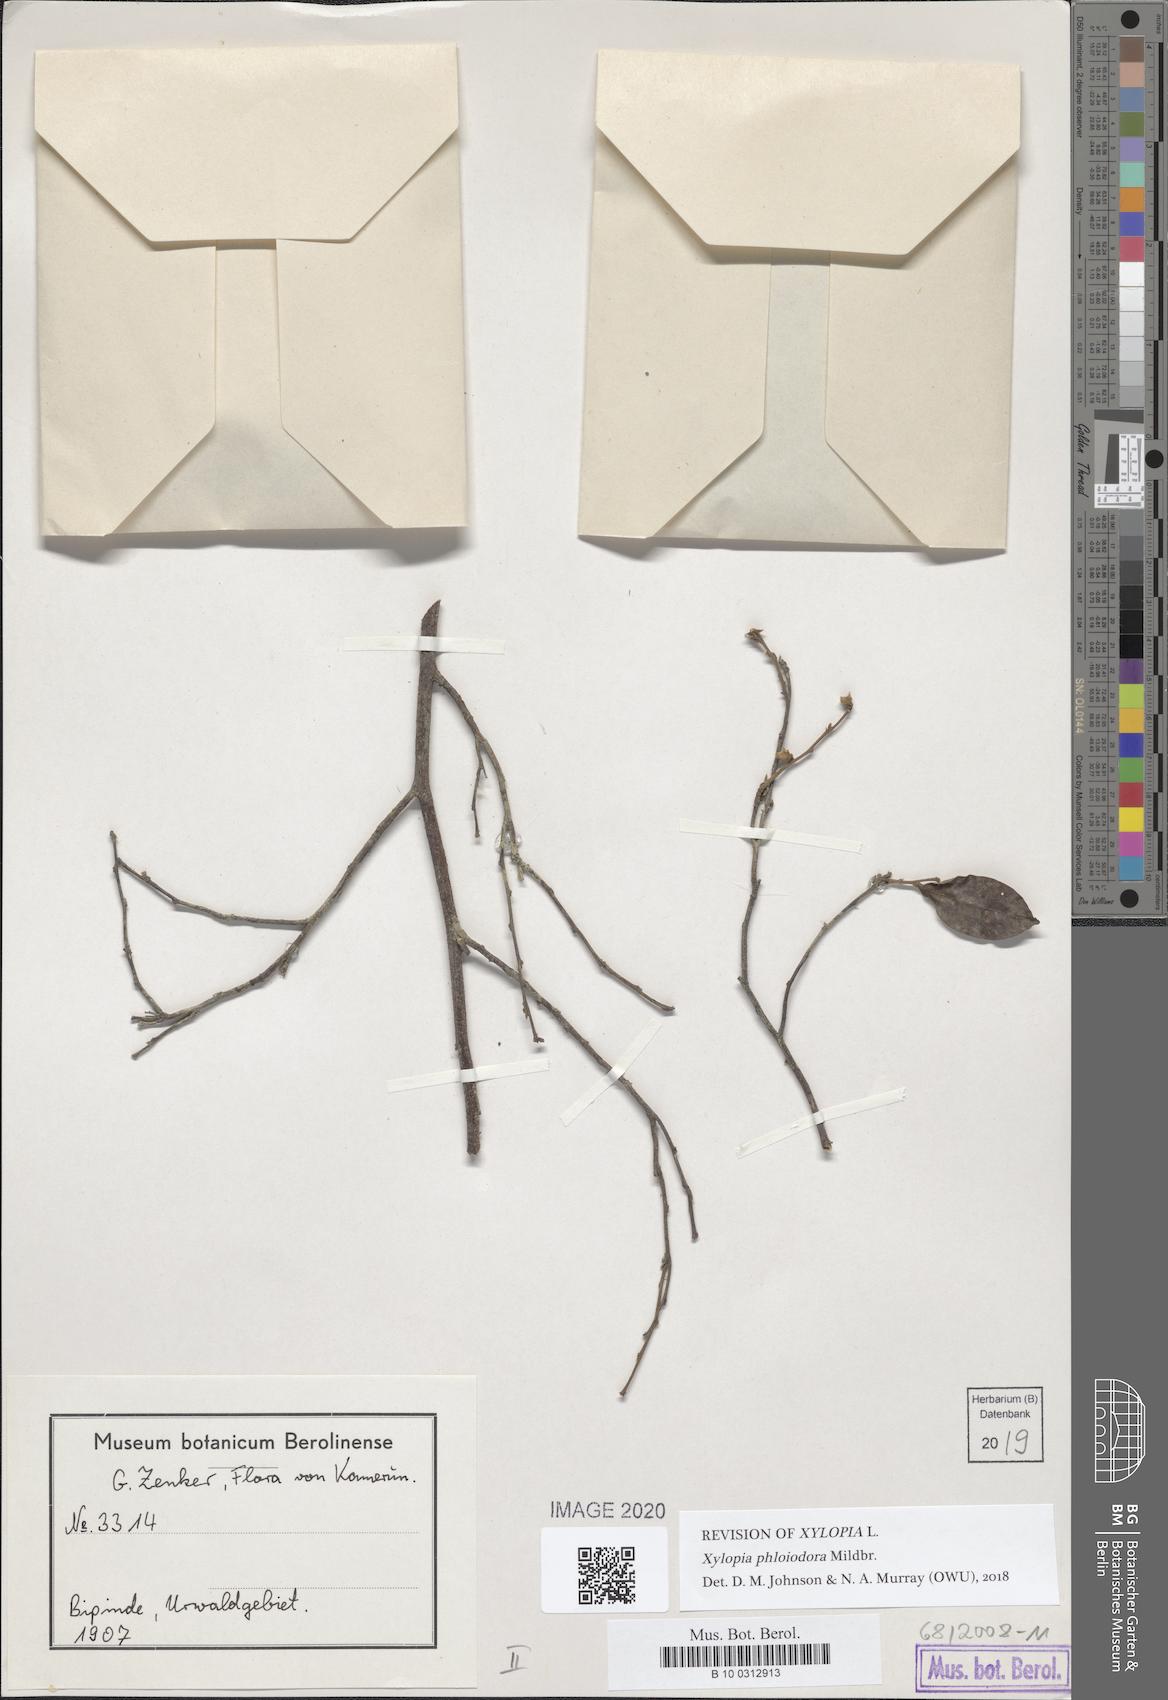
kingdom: Plantae
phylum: Tracheophyta
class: Magnoliopsida
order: Magnoliales
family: Annonaceae
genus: Xylopia
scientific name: Xylopia phloiodora
